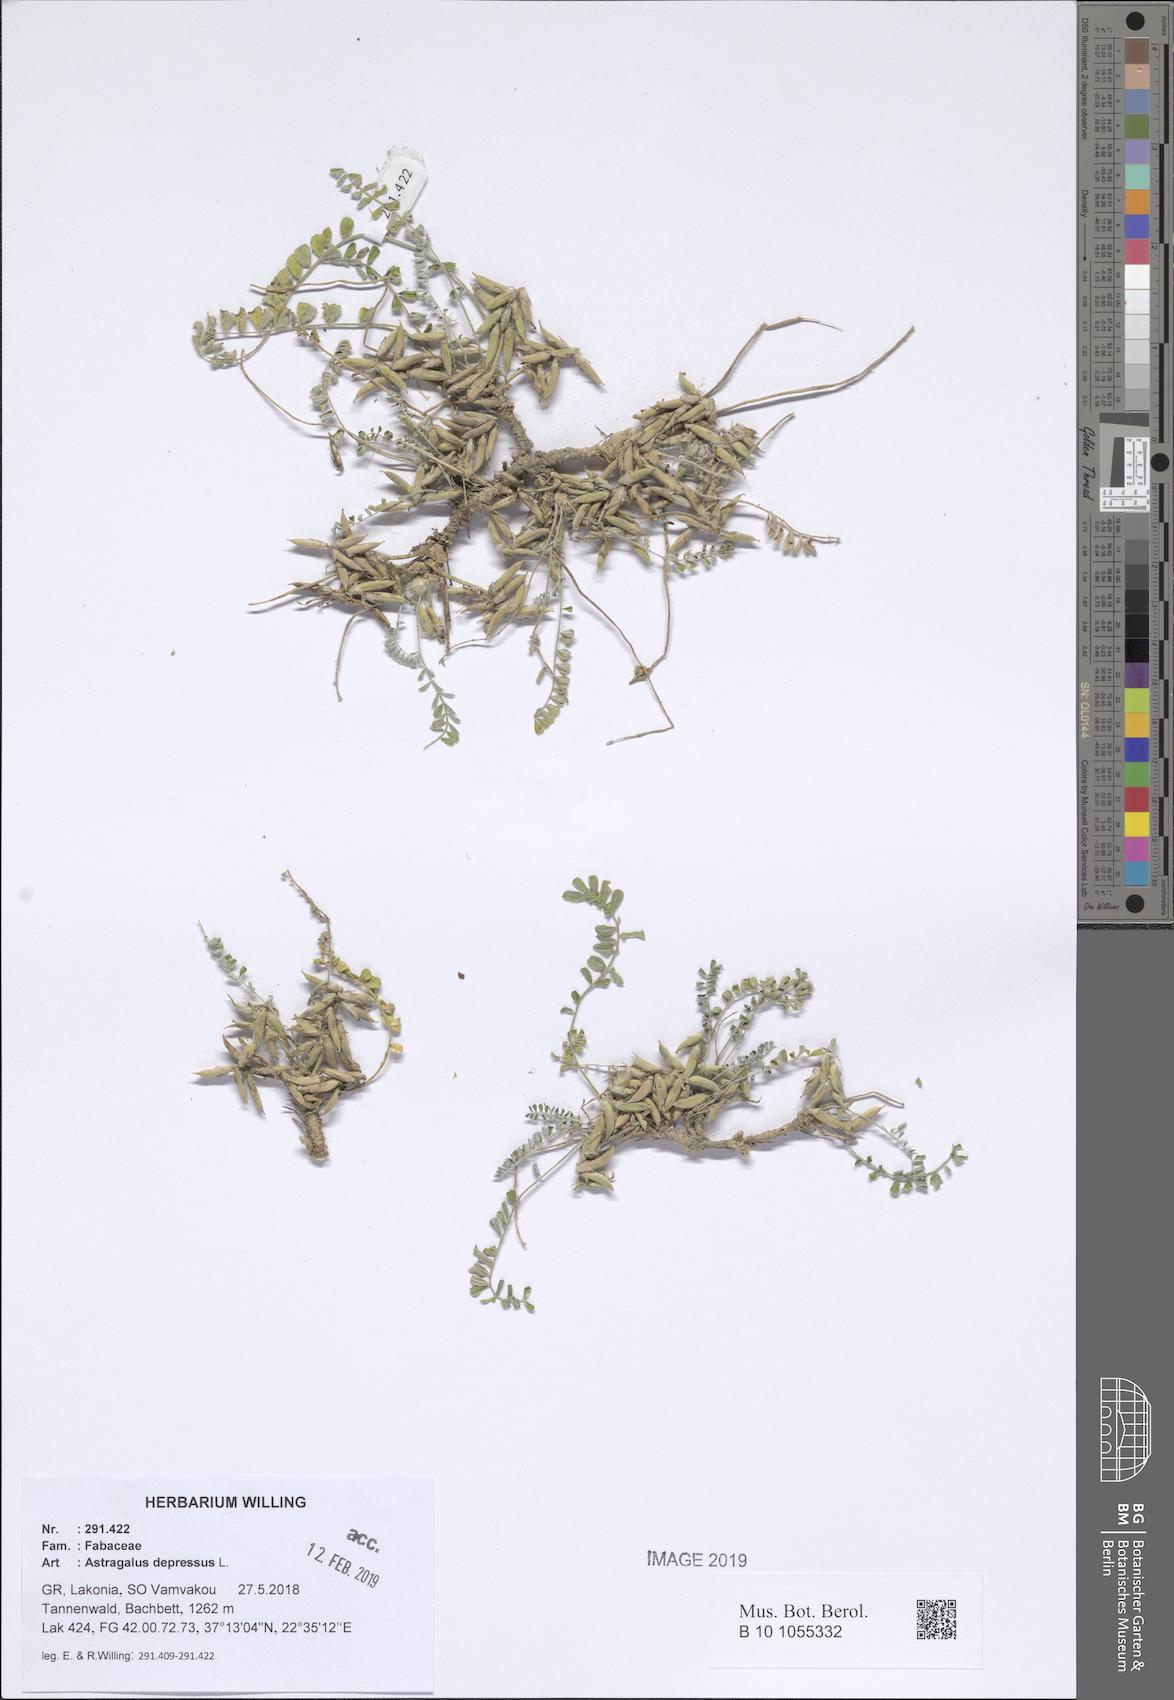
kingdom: Plantae
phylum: Tracheophyta
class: Magnoliopsida
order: Fabales
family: Fabaceae
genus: Astragalus
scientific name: Astragalus depressus
